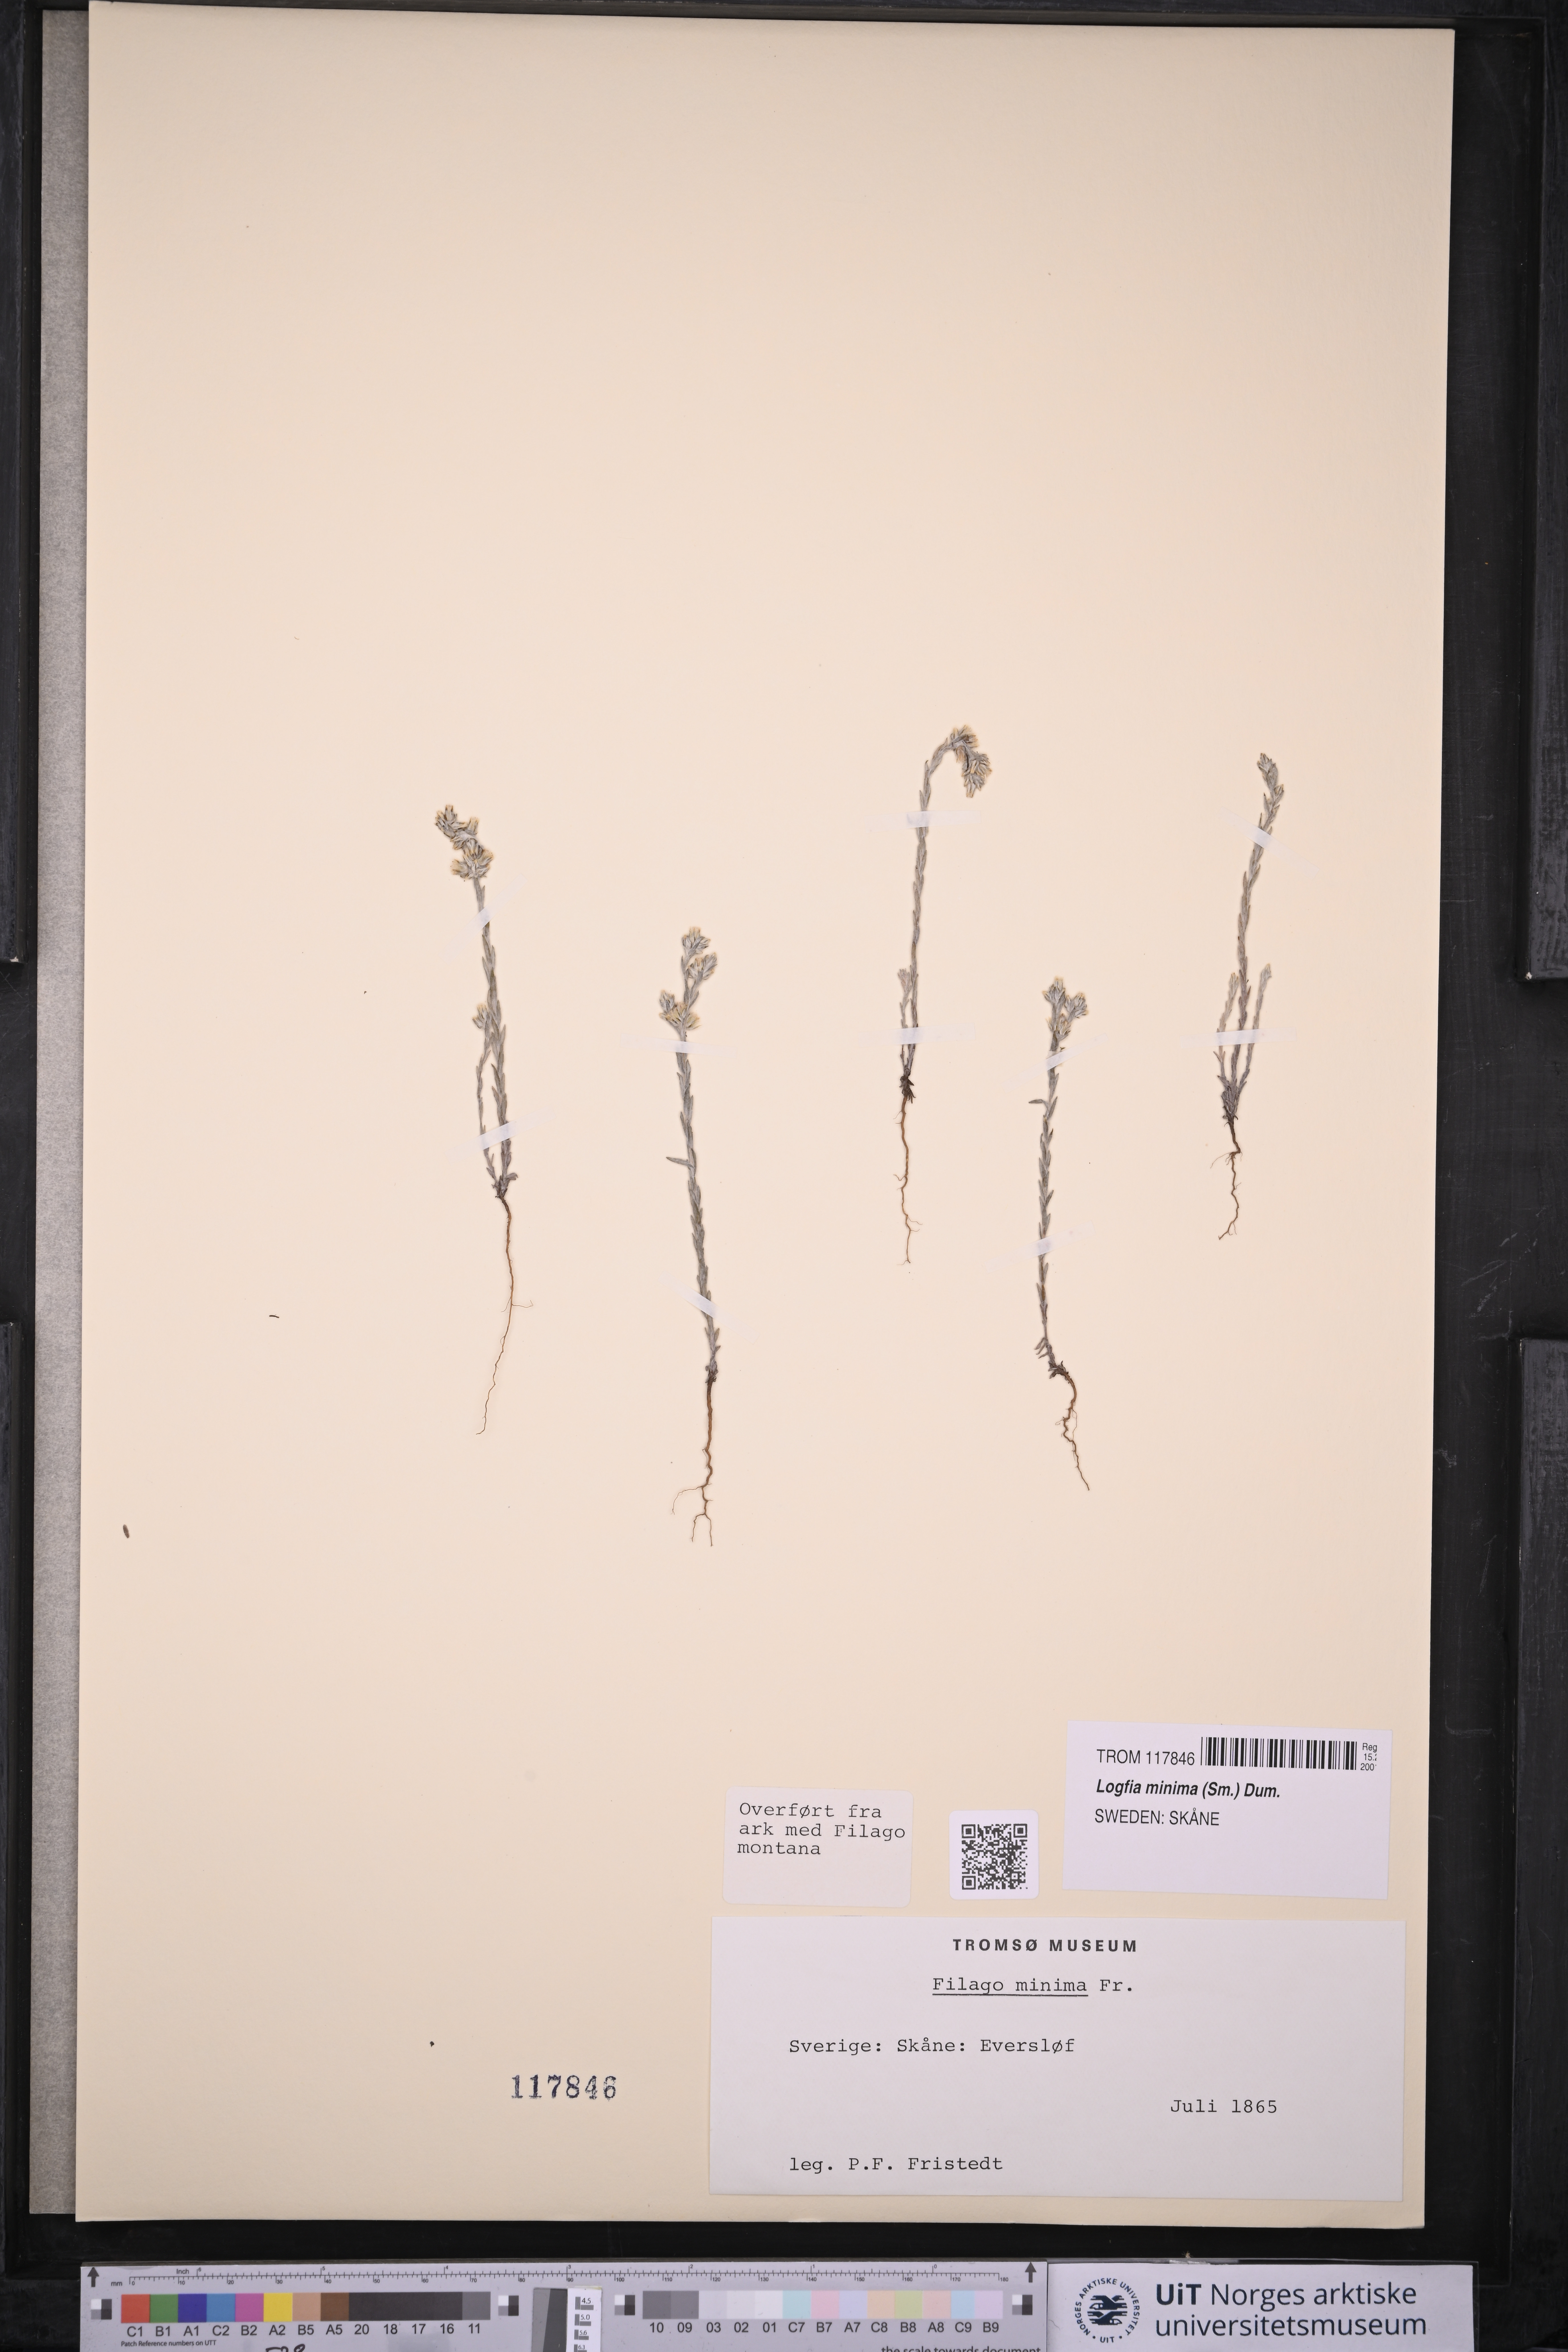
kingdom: Plantae
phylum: Tracheophyta
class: Magnoliopsida
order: Asterales
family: Asteraceae
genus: Logfia
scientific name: Logfia minima
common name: Little cottonrose
